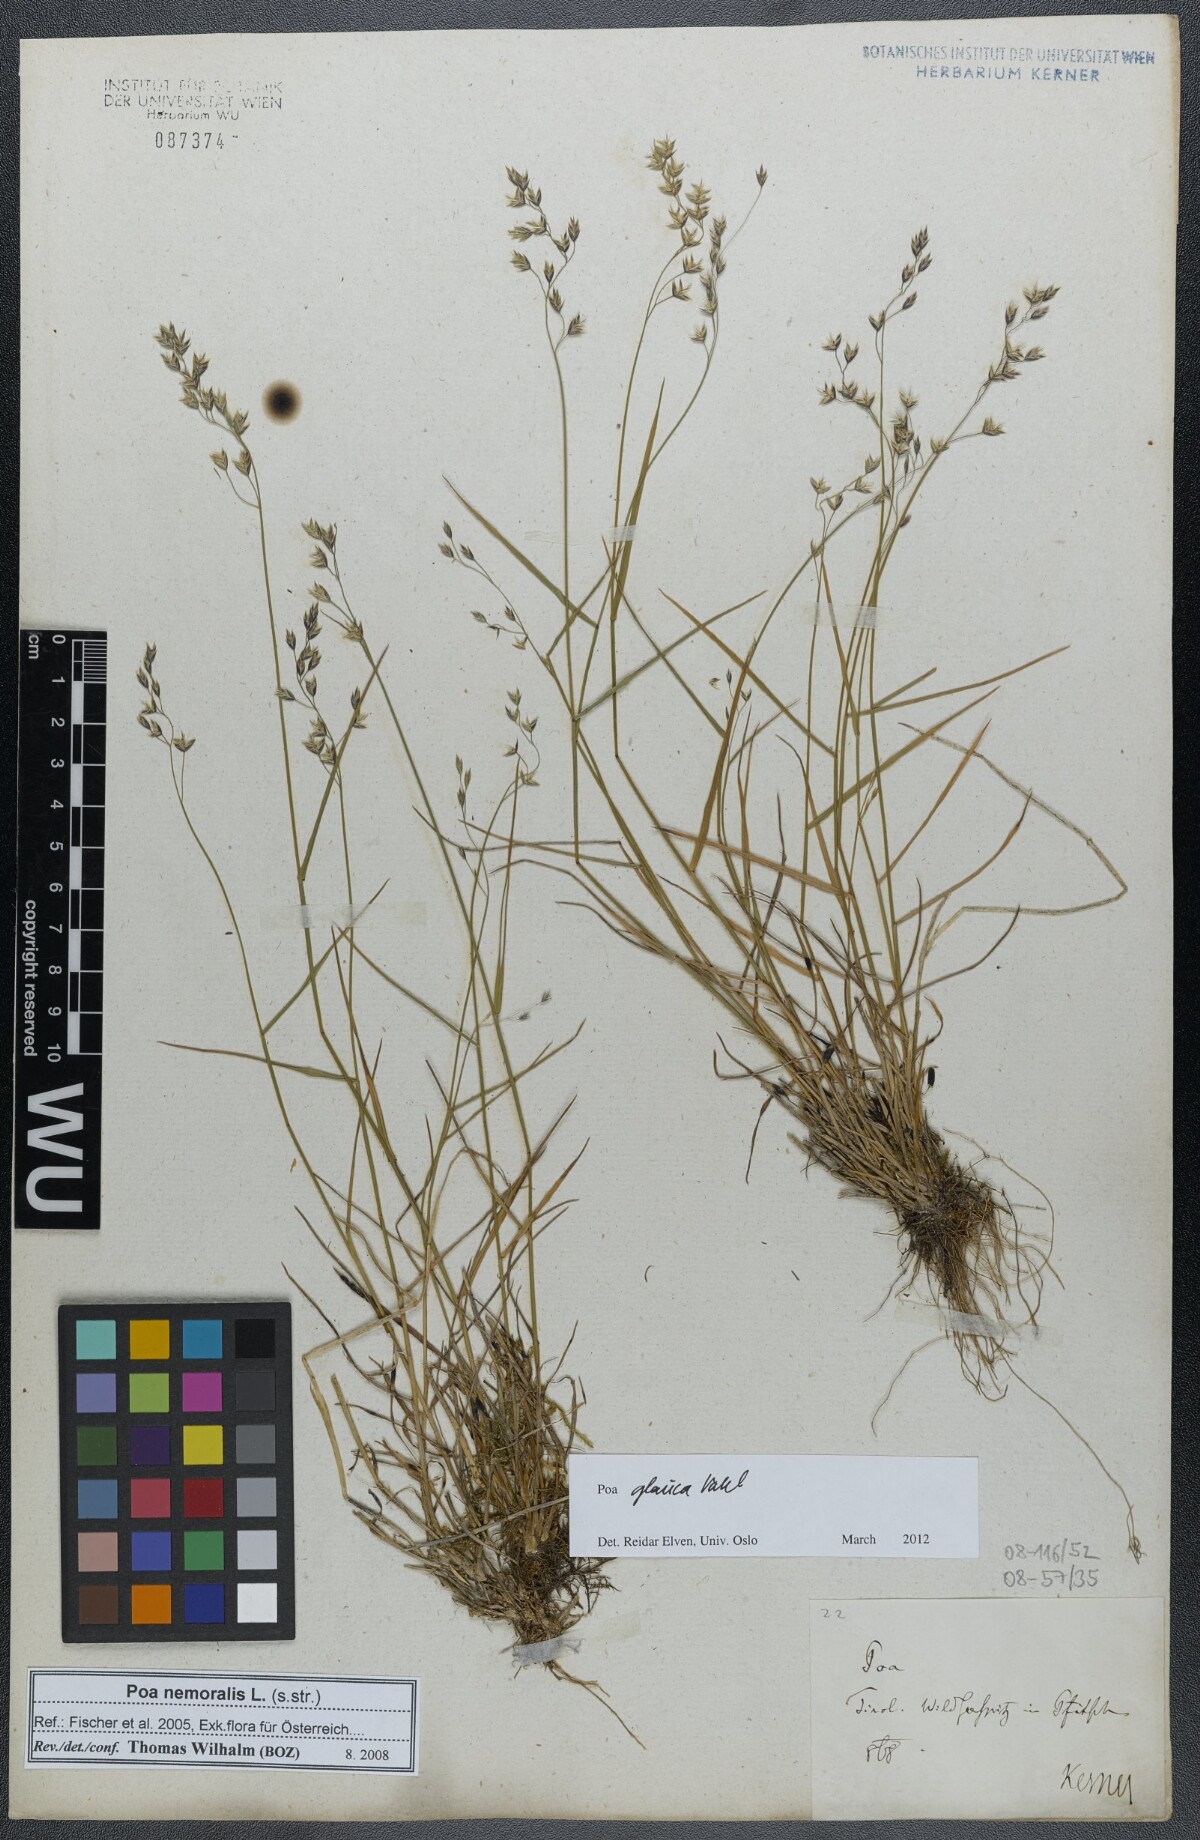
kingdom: Plantae
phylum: Tracheophyta
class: Liliopsida
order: Poales
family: Poaceae
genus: Poa
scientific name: Poa glauca
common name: Glaucous bluegrass
